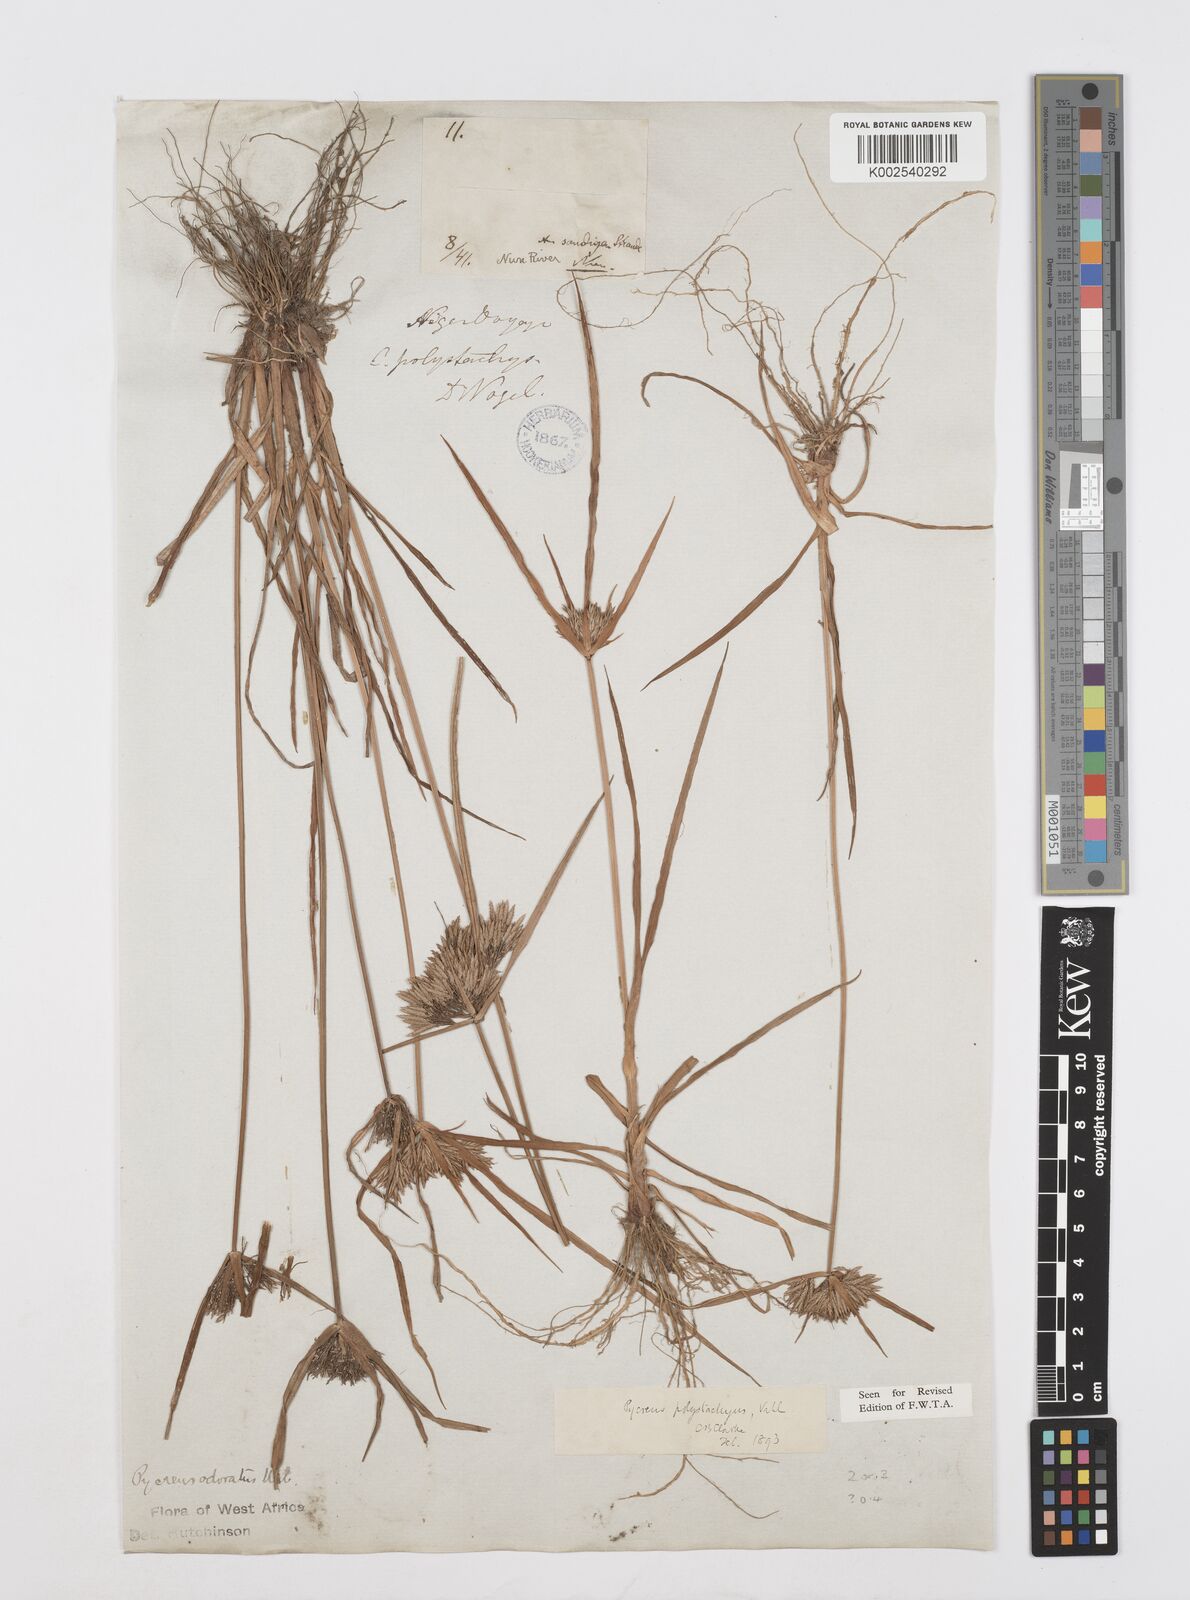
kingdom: Plantae
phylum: Tracheophyta
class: Liliopsida
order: Poales
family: Cyperaceae
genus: Cyperus
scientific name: Cyperus polystachyos
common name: Bunchy flat sedge
